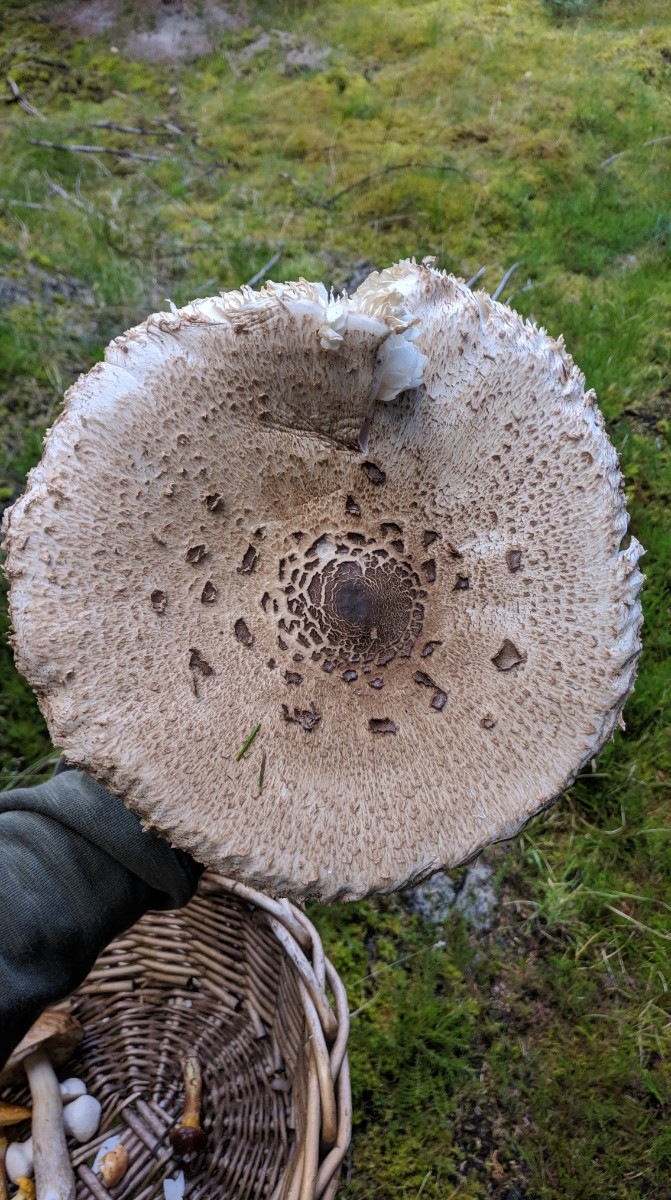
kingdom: Fungi
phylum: Basidiomycota
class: Agaricomycetes
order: Agaricales
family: Agaricaceae
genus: Macrolepiota
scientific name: Macrolepiota procera
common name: stor kæmpeparasolhat
